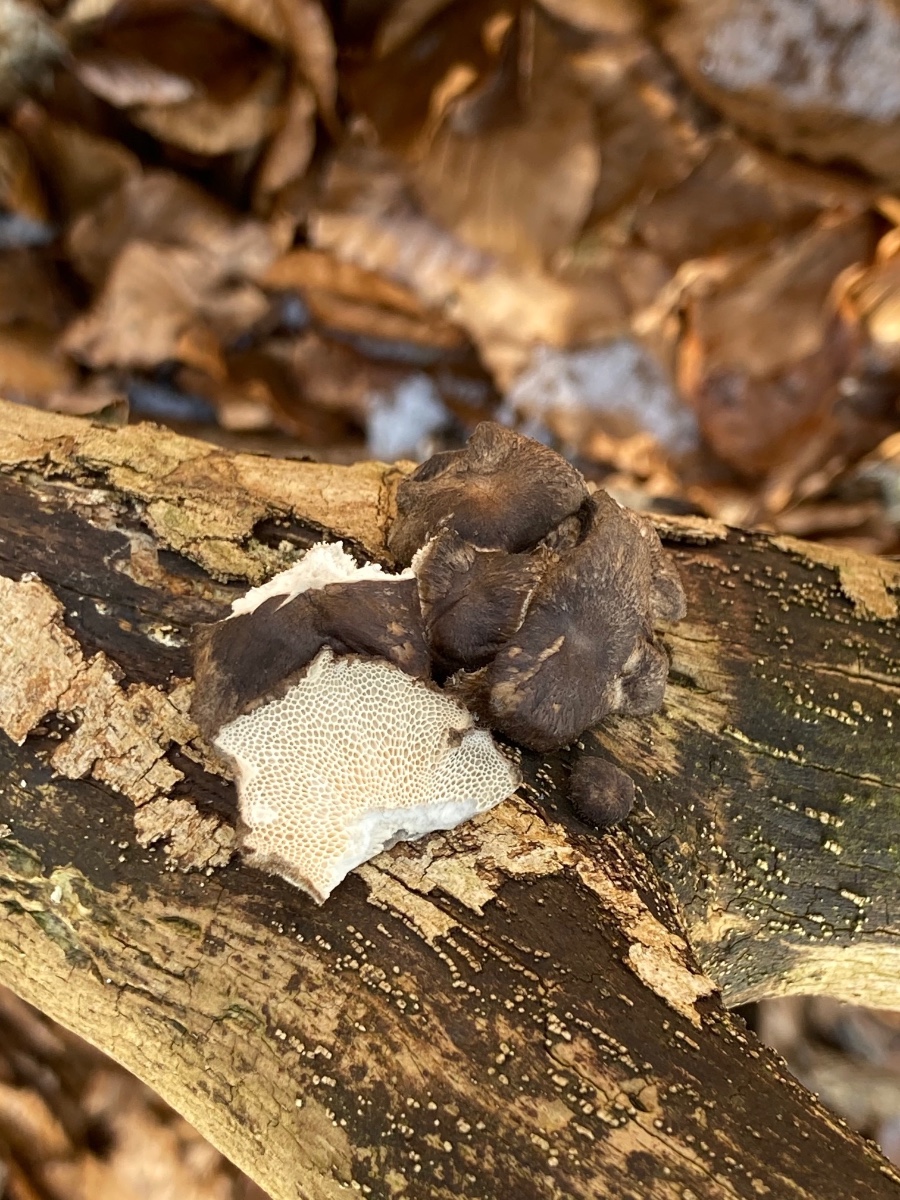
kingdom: Fungi
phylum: Basidiomycota
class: Agaricomycetes
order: Polyporales
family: Polyporaceae
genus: Lentinus
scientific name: Lentinus brumalis
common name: vinter-stilkporesvamp
